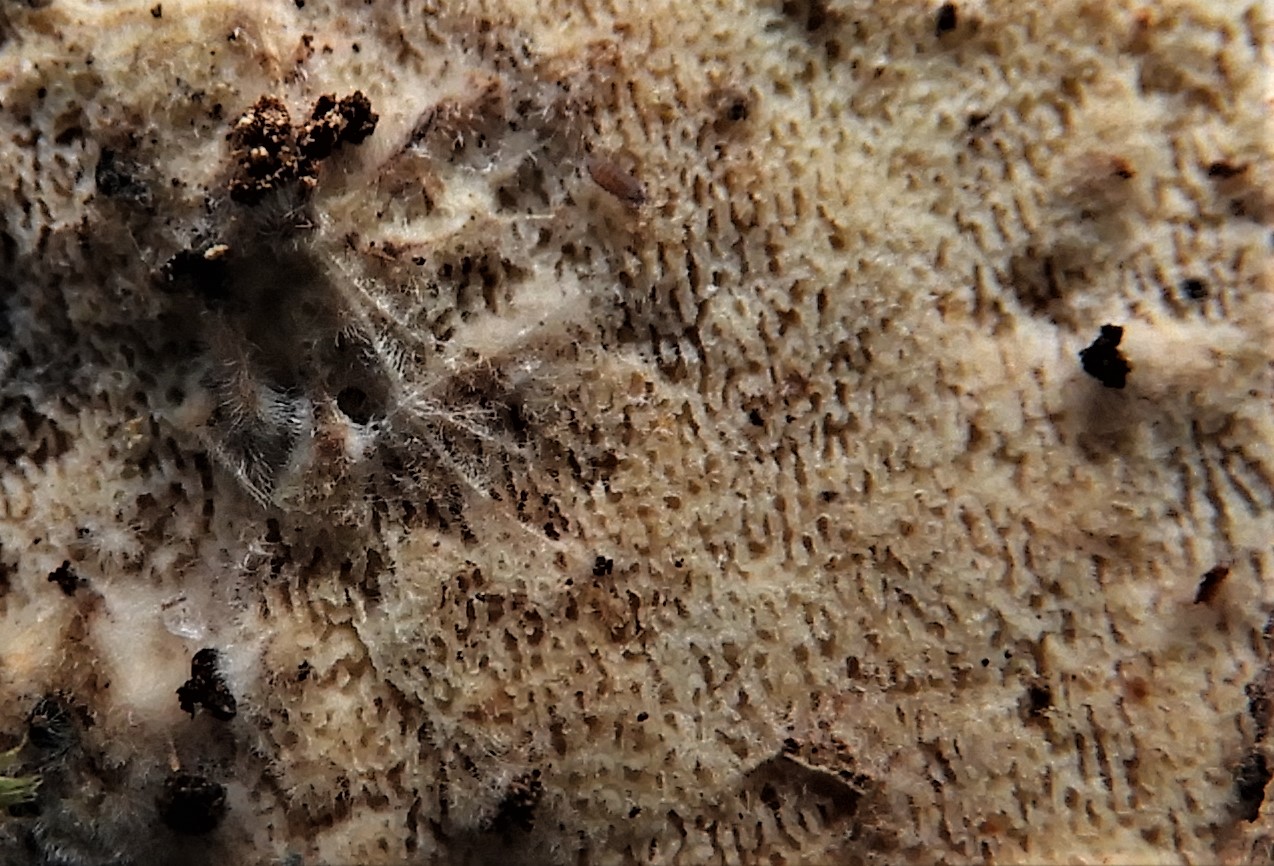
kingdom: Fungi
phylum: Basidiomycota
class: Agaricomycetes
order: Agaricales
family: Porotheleaceae
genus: Porotheleum
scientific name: Porotheleum fimbriatum
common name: poreskål
